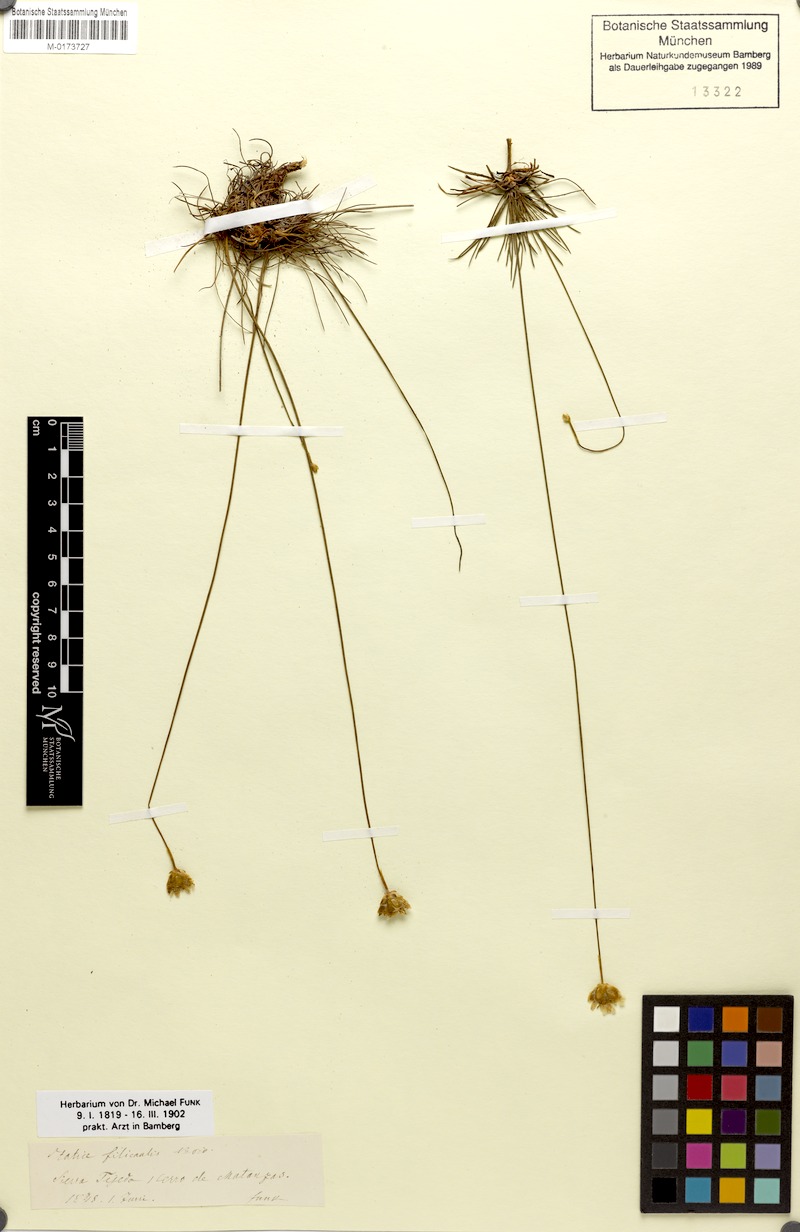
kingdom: Plantae
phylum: Tracheophyta
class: Magnoliopsida
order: Caryophyllales
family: Plumbaginaceae
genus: Armeria
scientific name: Armeria filicaulis
